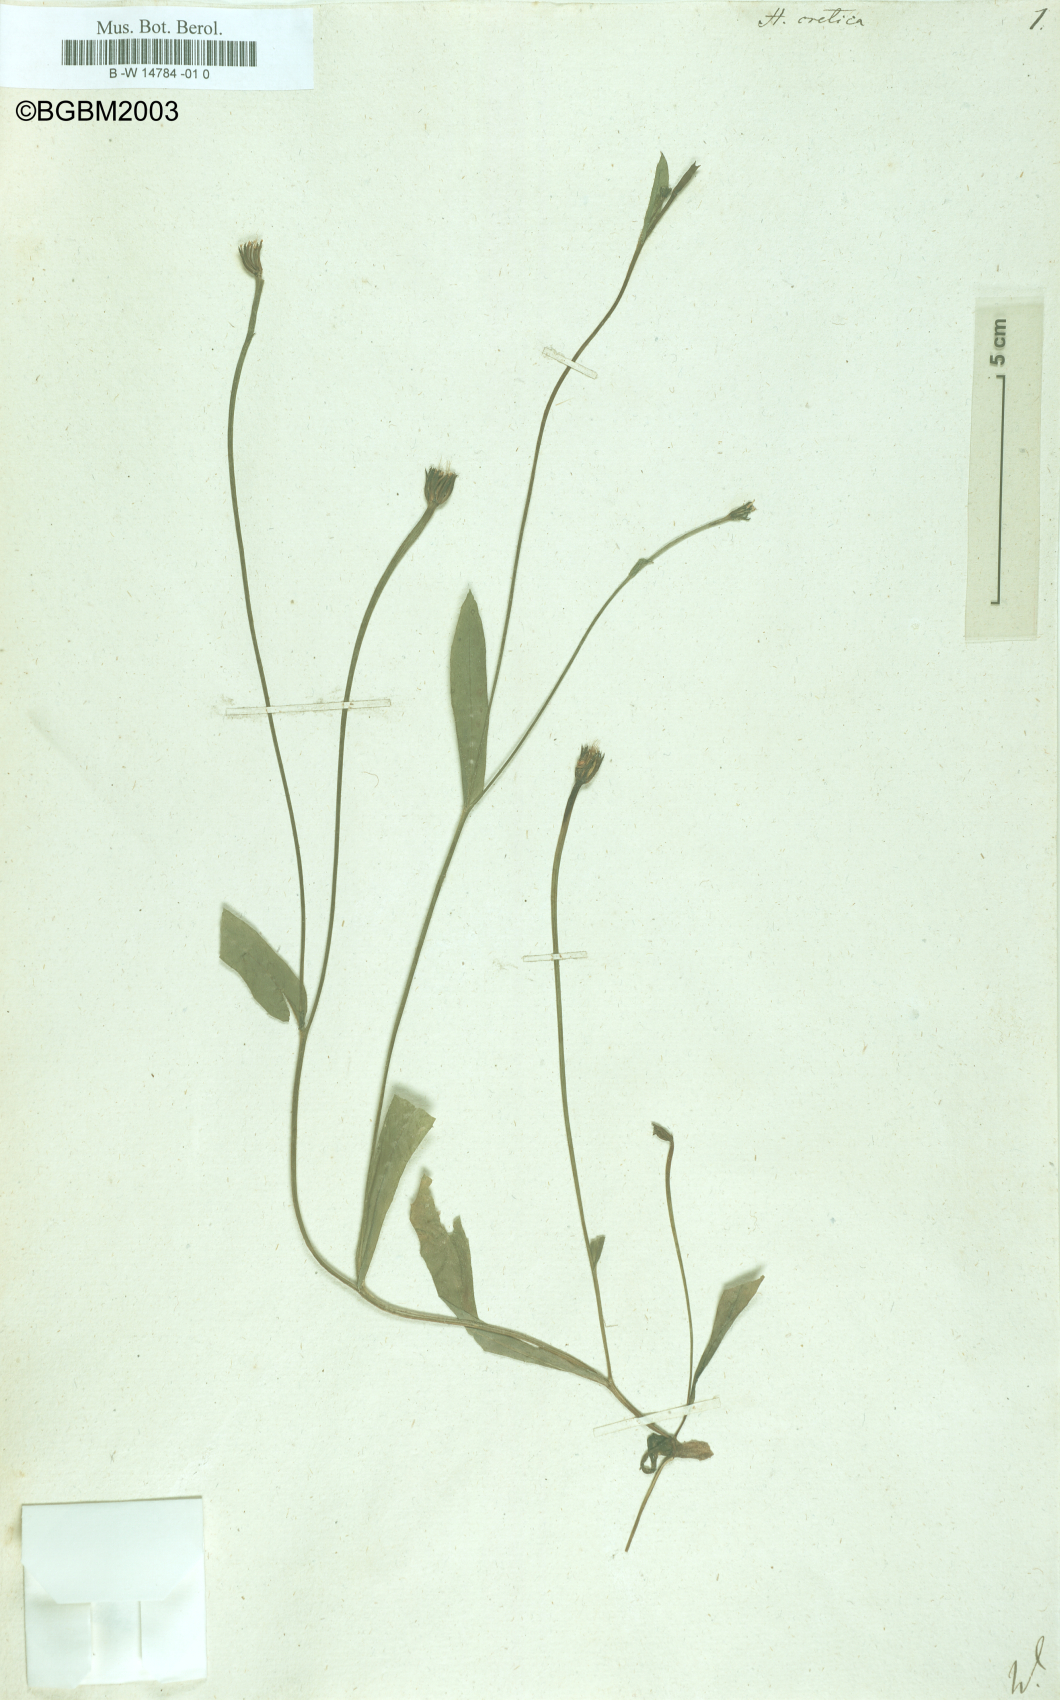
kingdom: Plantae
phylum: Tracheophyta
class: Magnoliopsida
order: Asterales
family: Asteraceae
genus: Hedypnois
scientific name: Hedypnois cretica
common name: Scaly hawkbit
